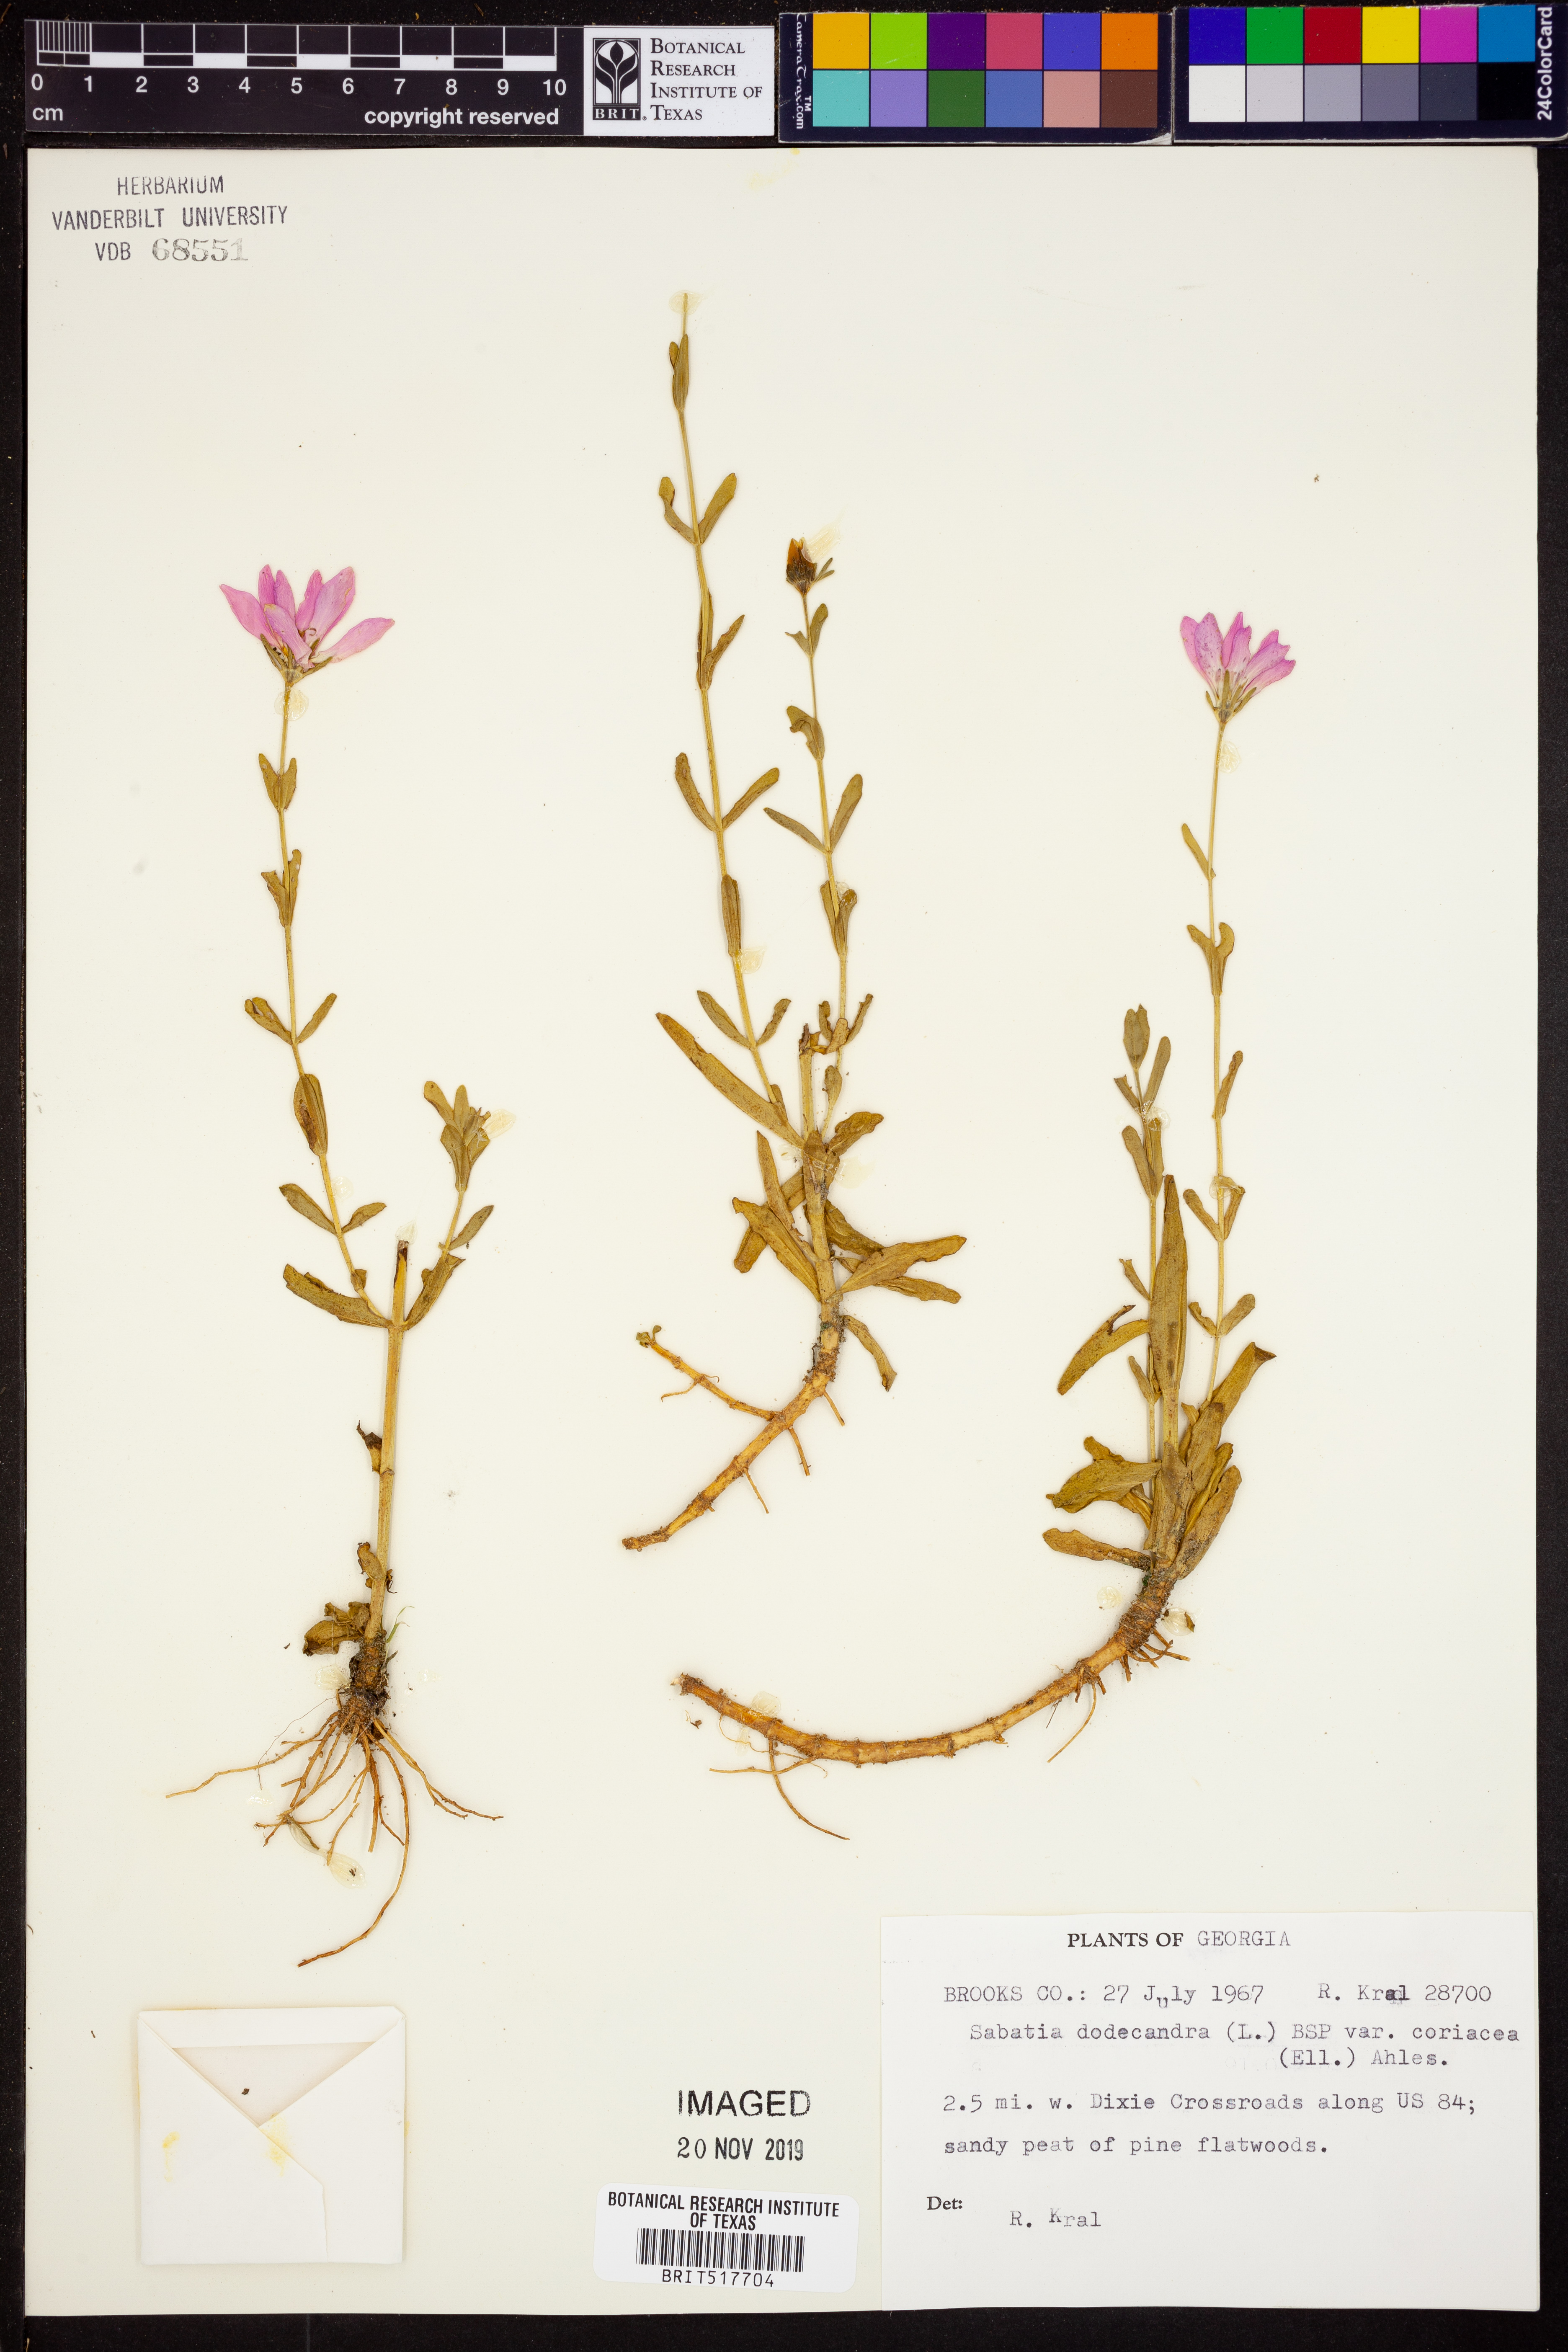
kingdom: Plantae
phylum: Tracheophyta
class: Magnoliopsida
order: Gentianales
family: Gentianaceae
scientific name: Gentianaceae
